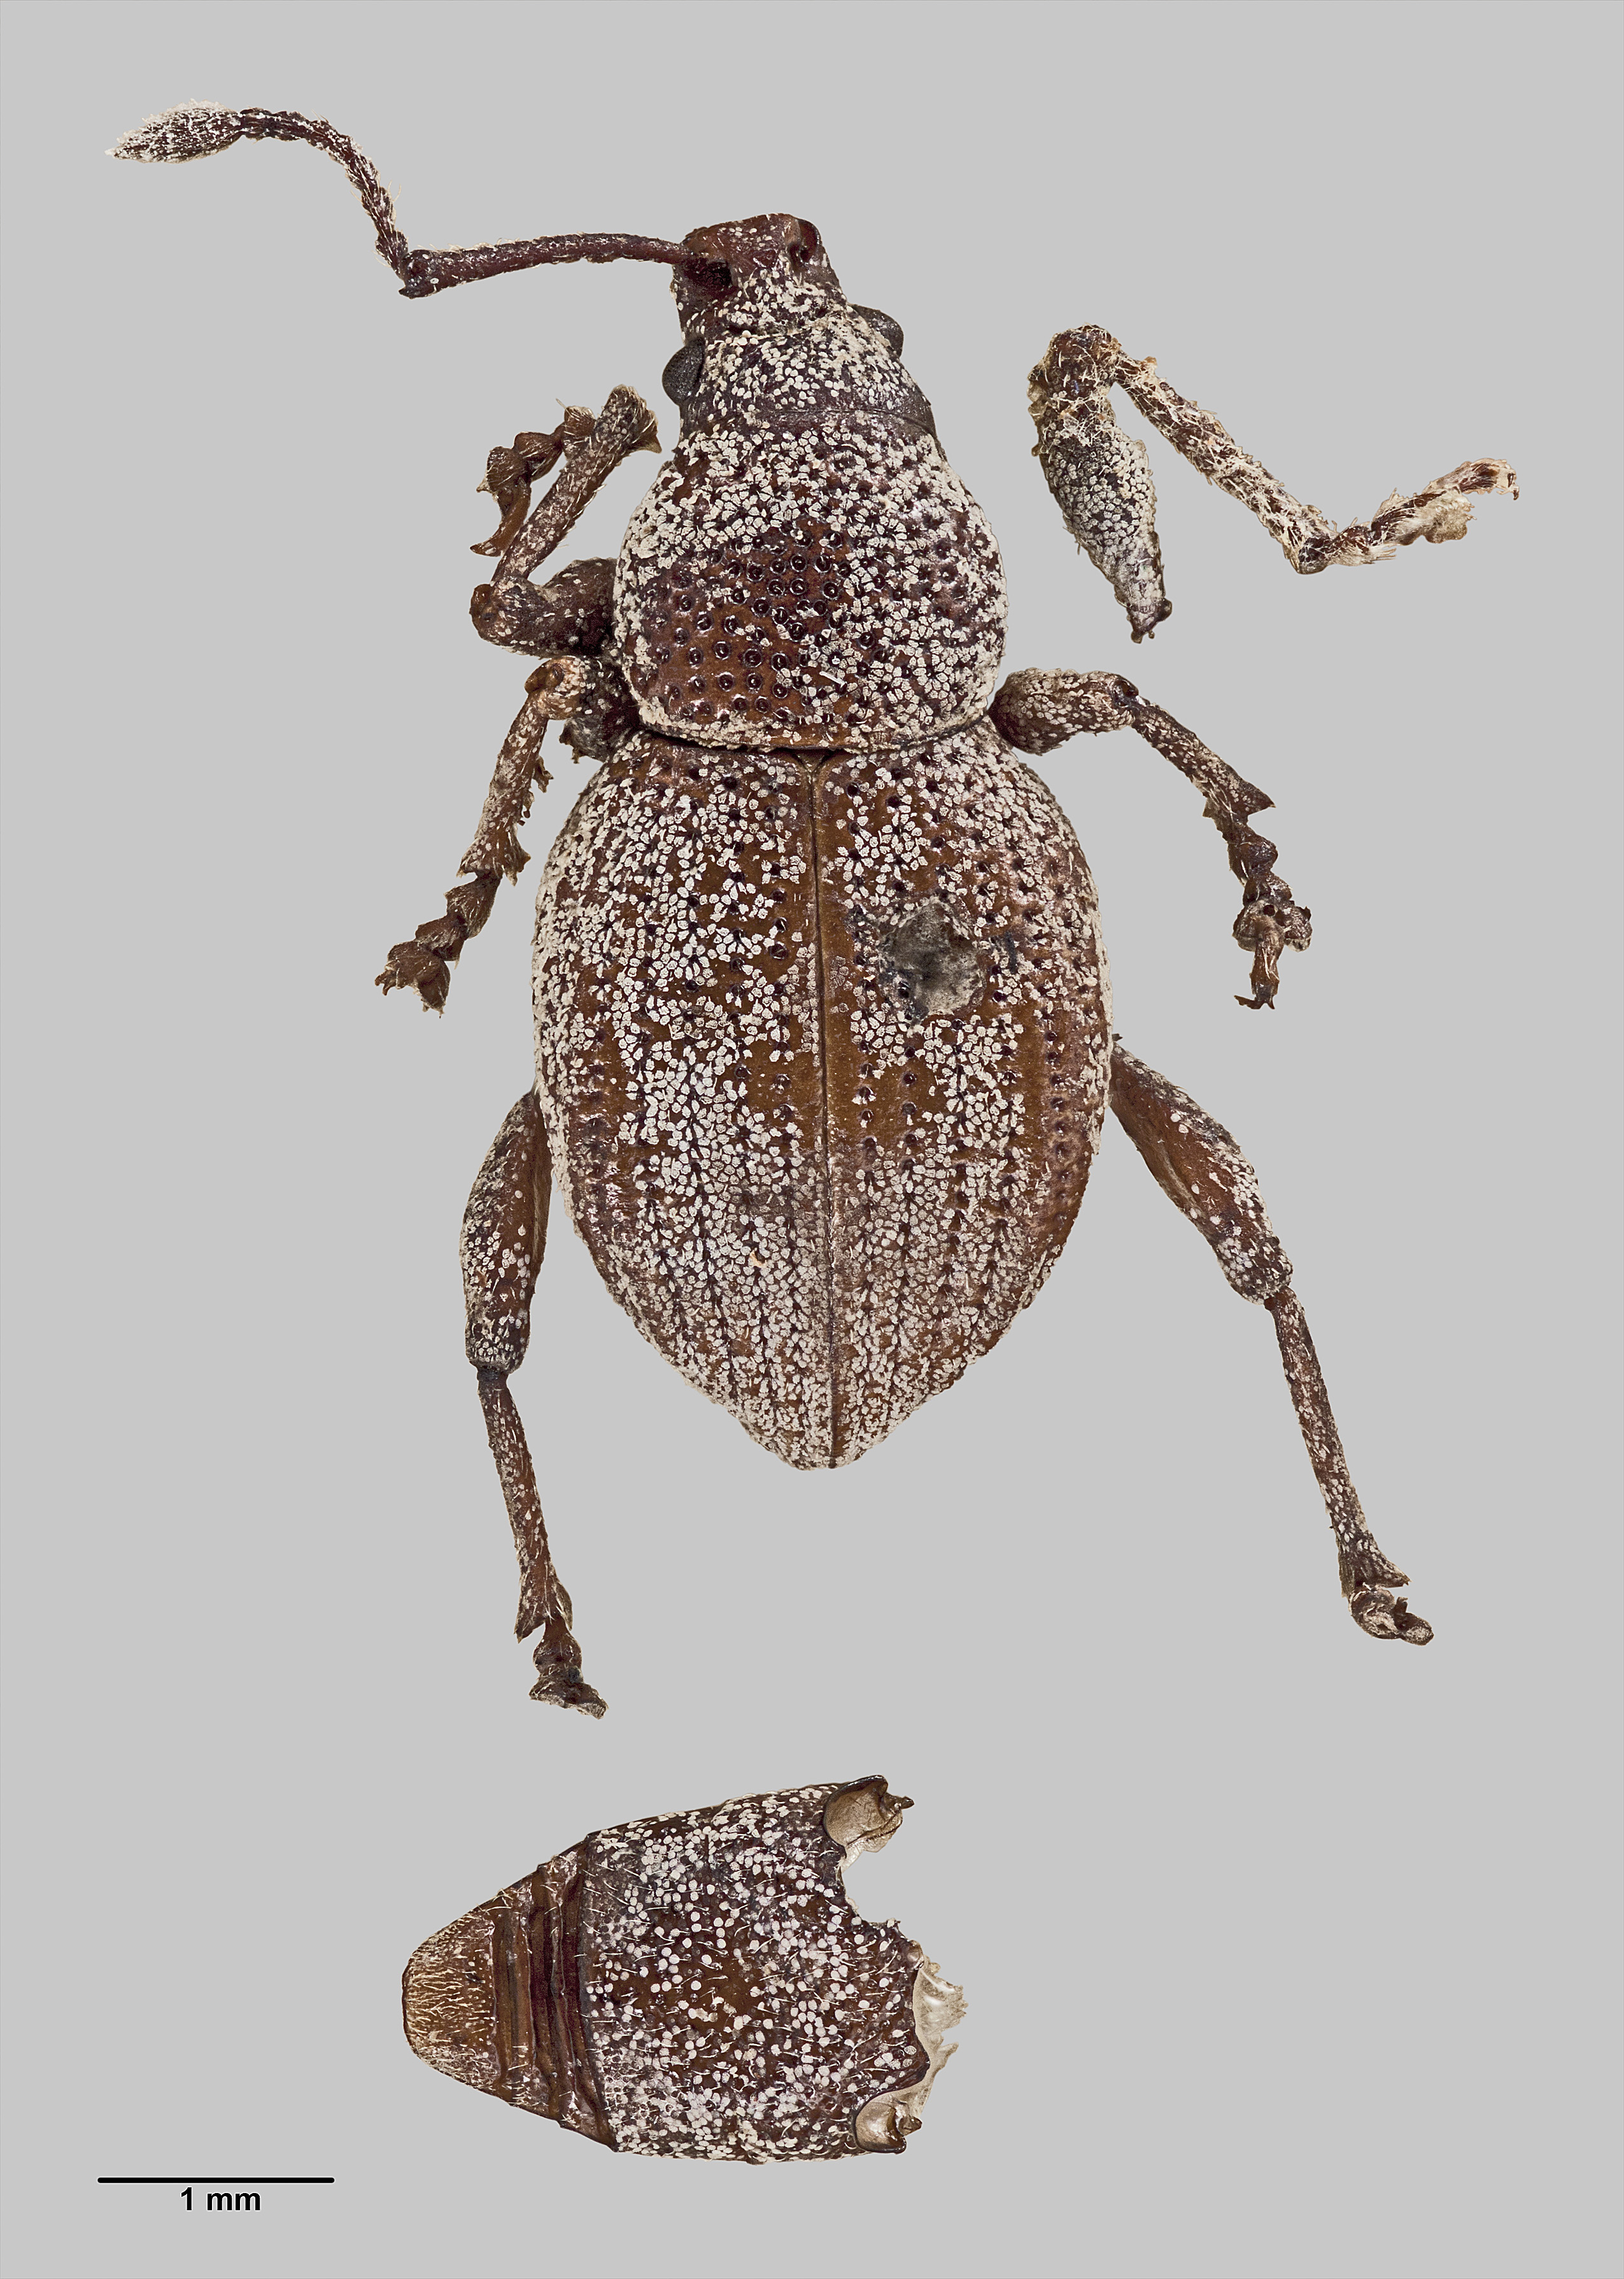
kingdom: Animalia
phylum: Arthropoda
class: Insecta
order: Coleoptera
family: Curculionidae
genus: Platysimus
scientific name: Platysimus planidorsis
